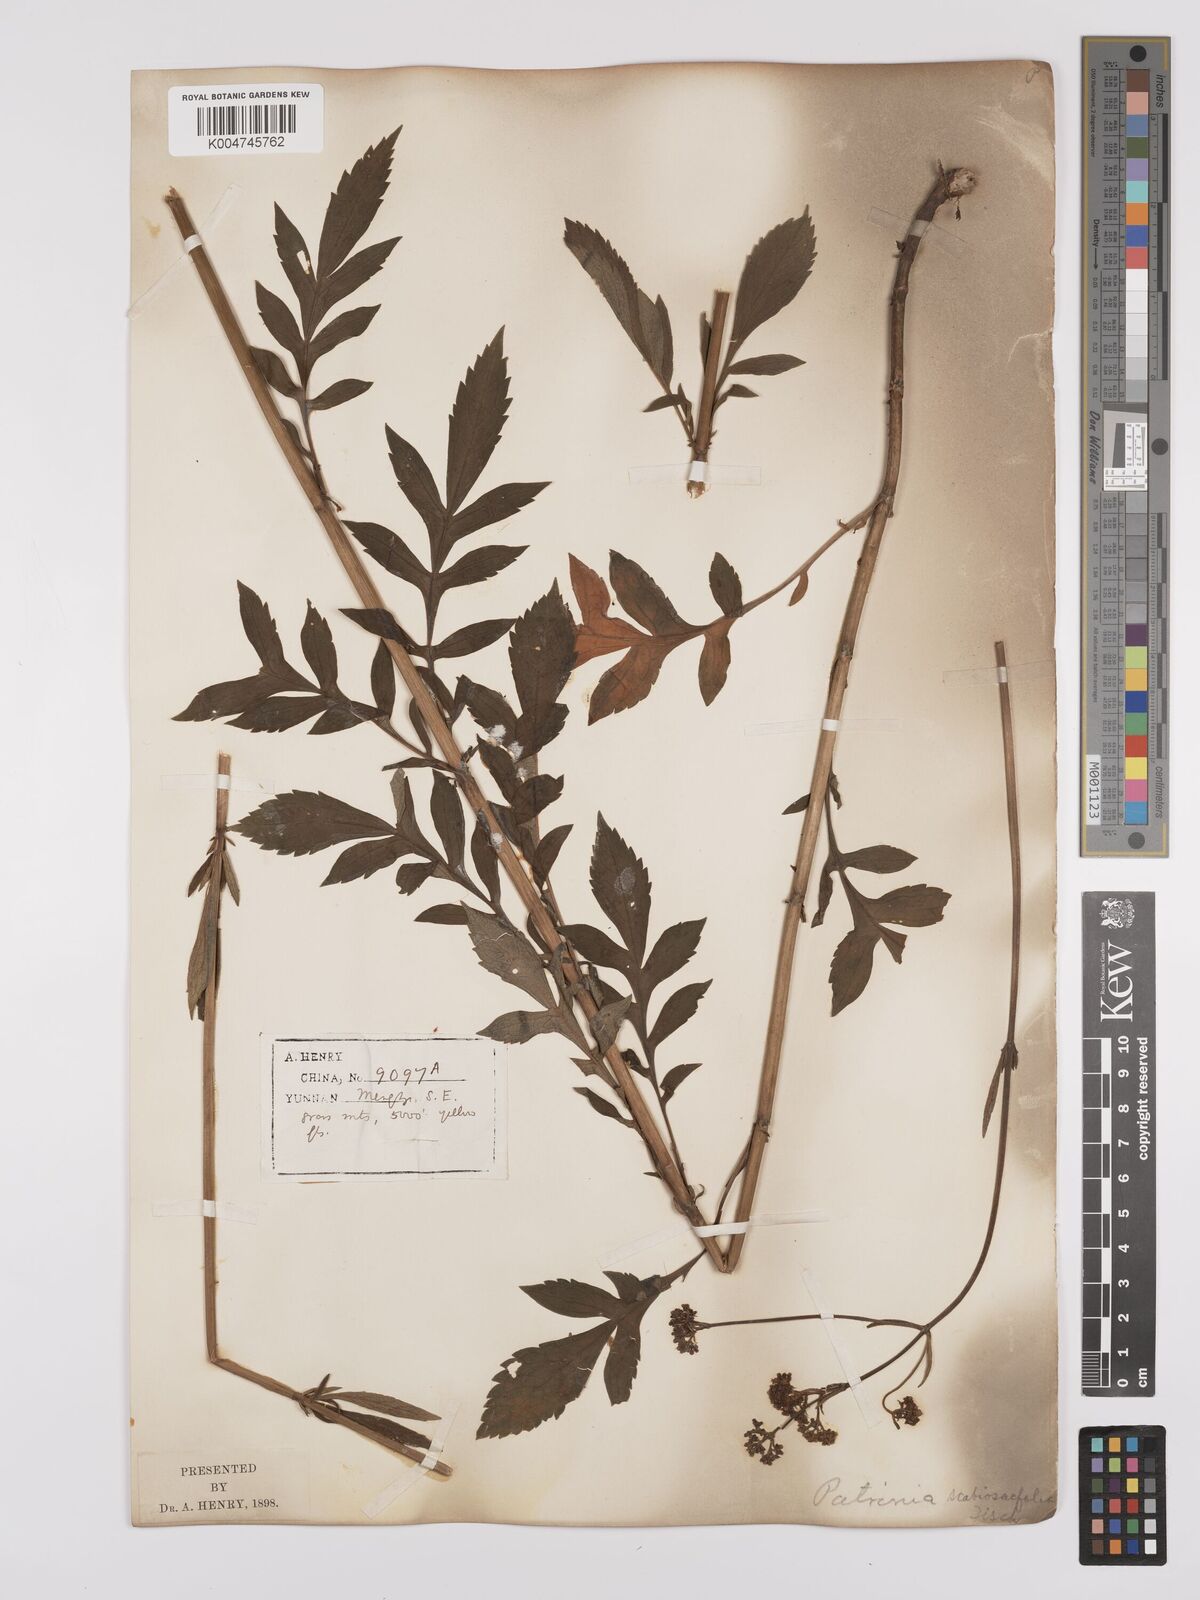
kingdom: Plantae
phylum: Tracheophyta
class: Magnoliopsida
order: Dipsacales
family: Caprifoliaceae
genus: Patrinia
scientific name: Patrinia
